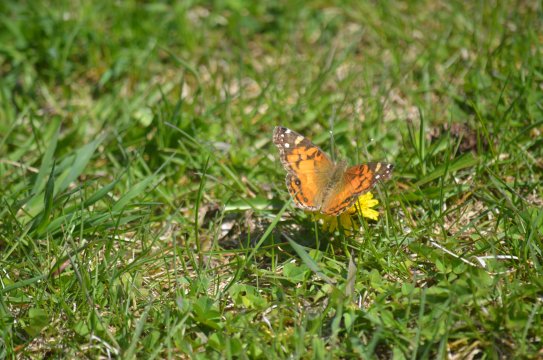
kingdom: Animalia
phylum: Arthropoda
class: Insecta
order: Lepidoptera
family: Nymphalidae
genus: Vanessa
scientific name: Vanessa virginiensis
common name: American Lady
